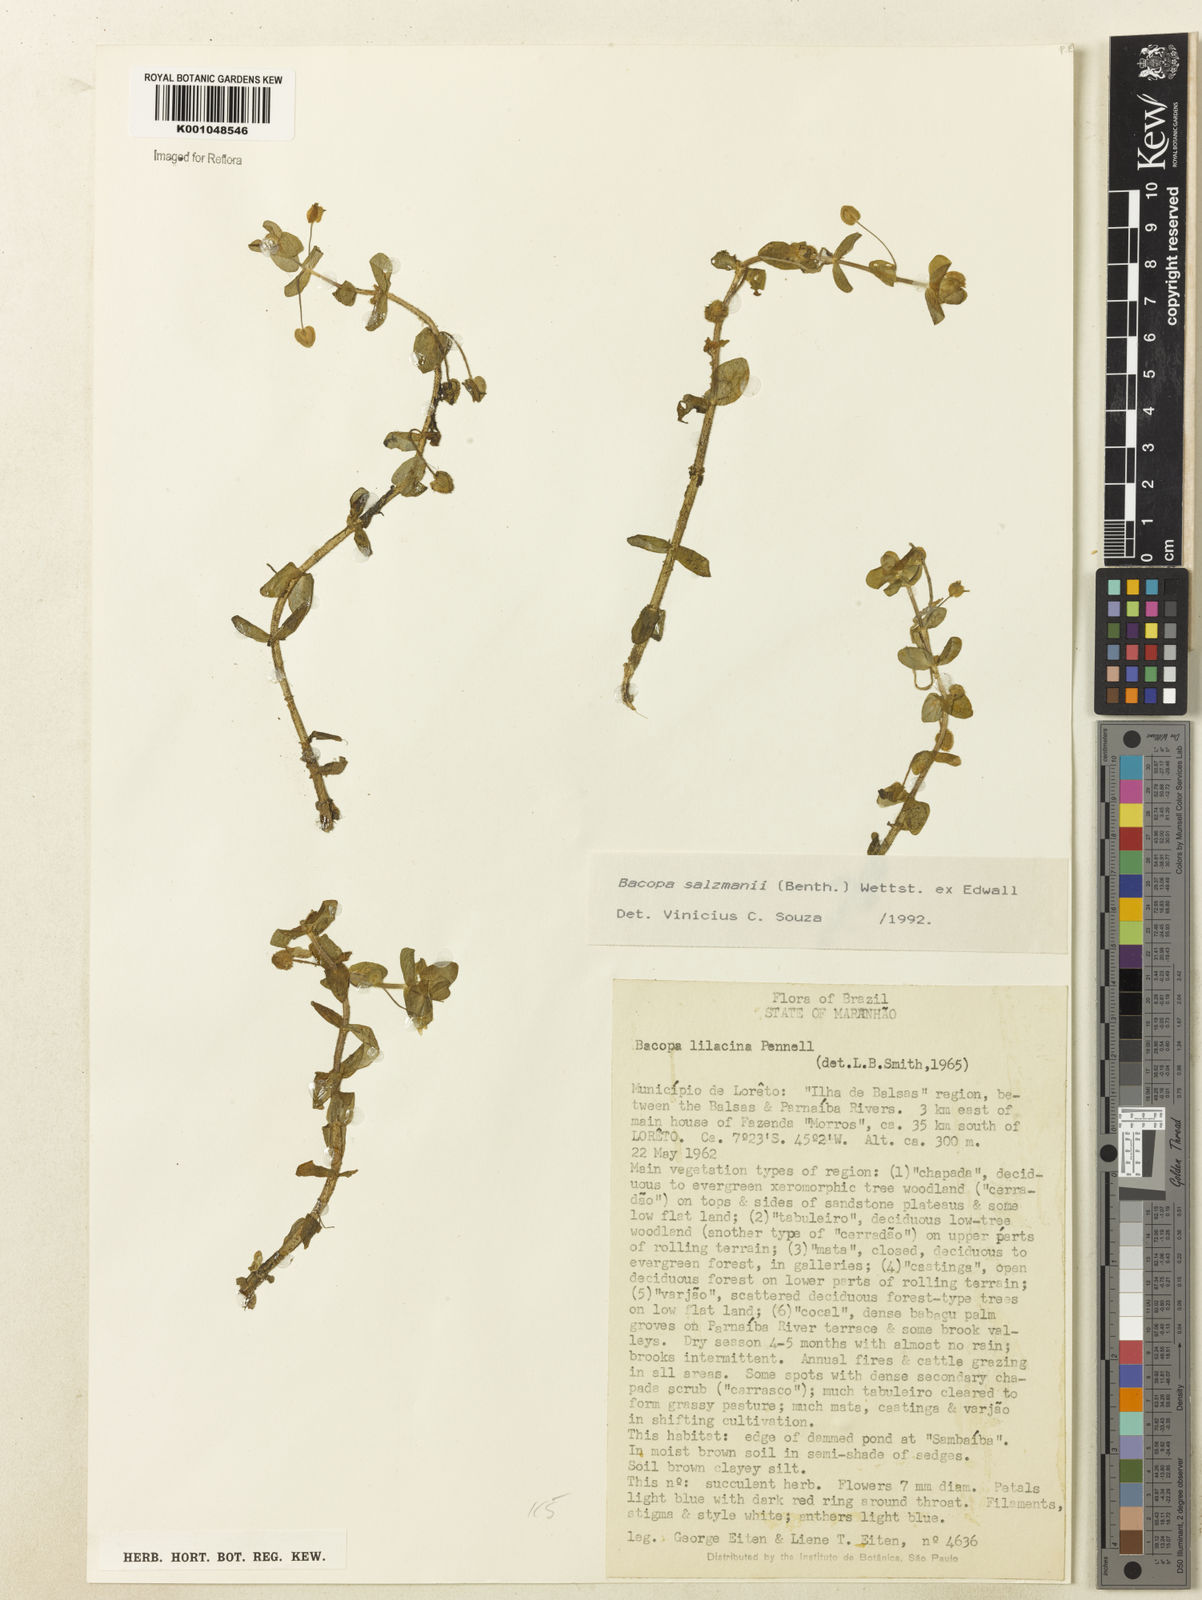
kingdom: Plantae
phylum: Tracheophyta
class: Magnoliopsida
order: Lamiales
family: Plantaginaceae
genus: Bacopa
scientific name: Bacopa salzmannii
